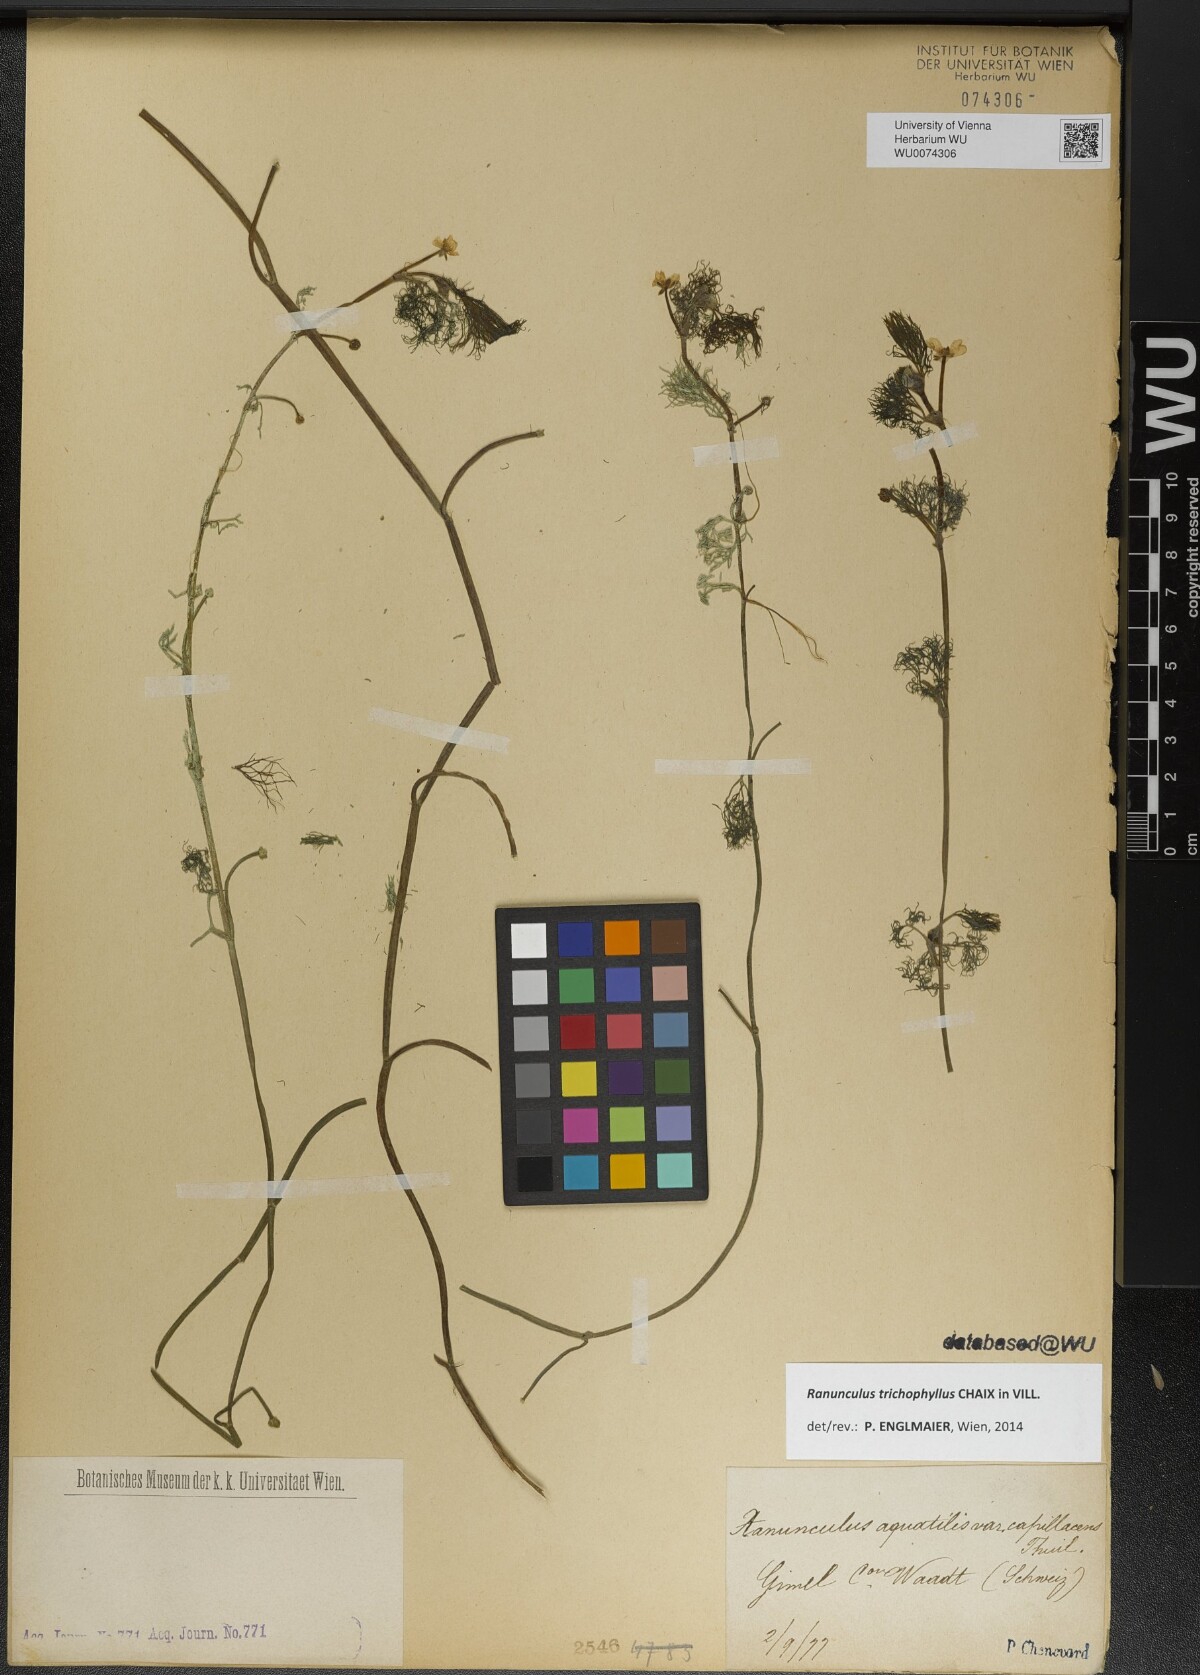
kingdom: Plantae
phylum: Tracheophyta
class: Magnoliopsida
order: Ranunculales
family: Ranunculaceae
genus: Ranunculus
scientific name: Ranunculus trichophyllus
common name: Thread-leaved water-crowfoot
